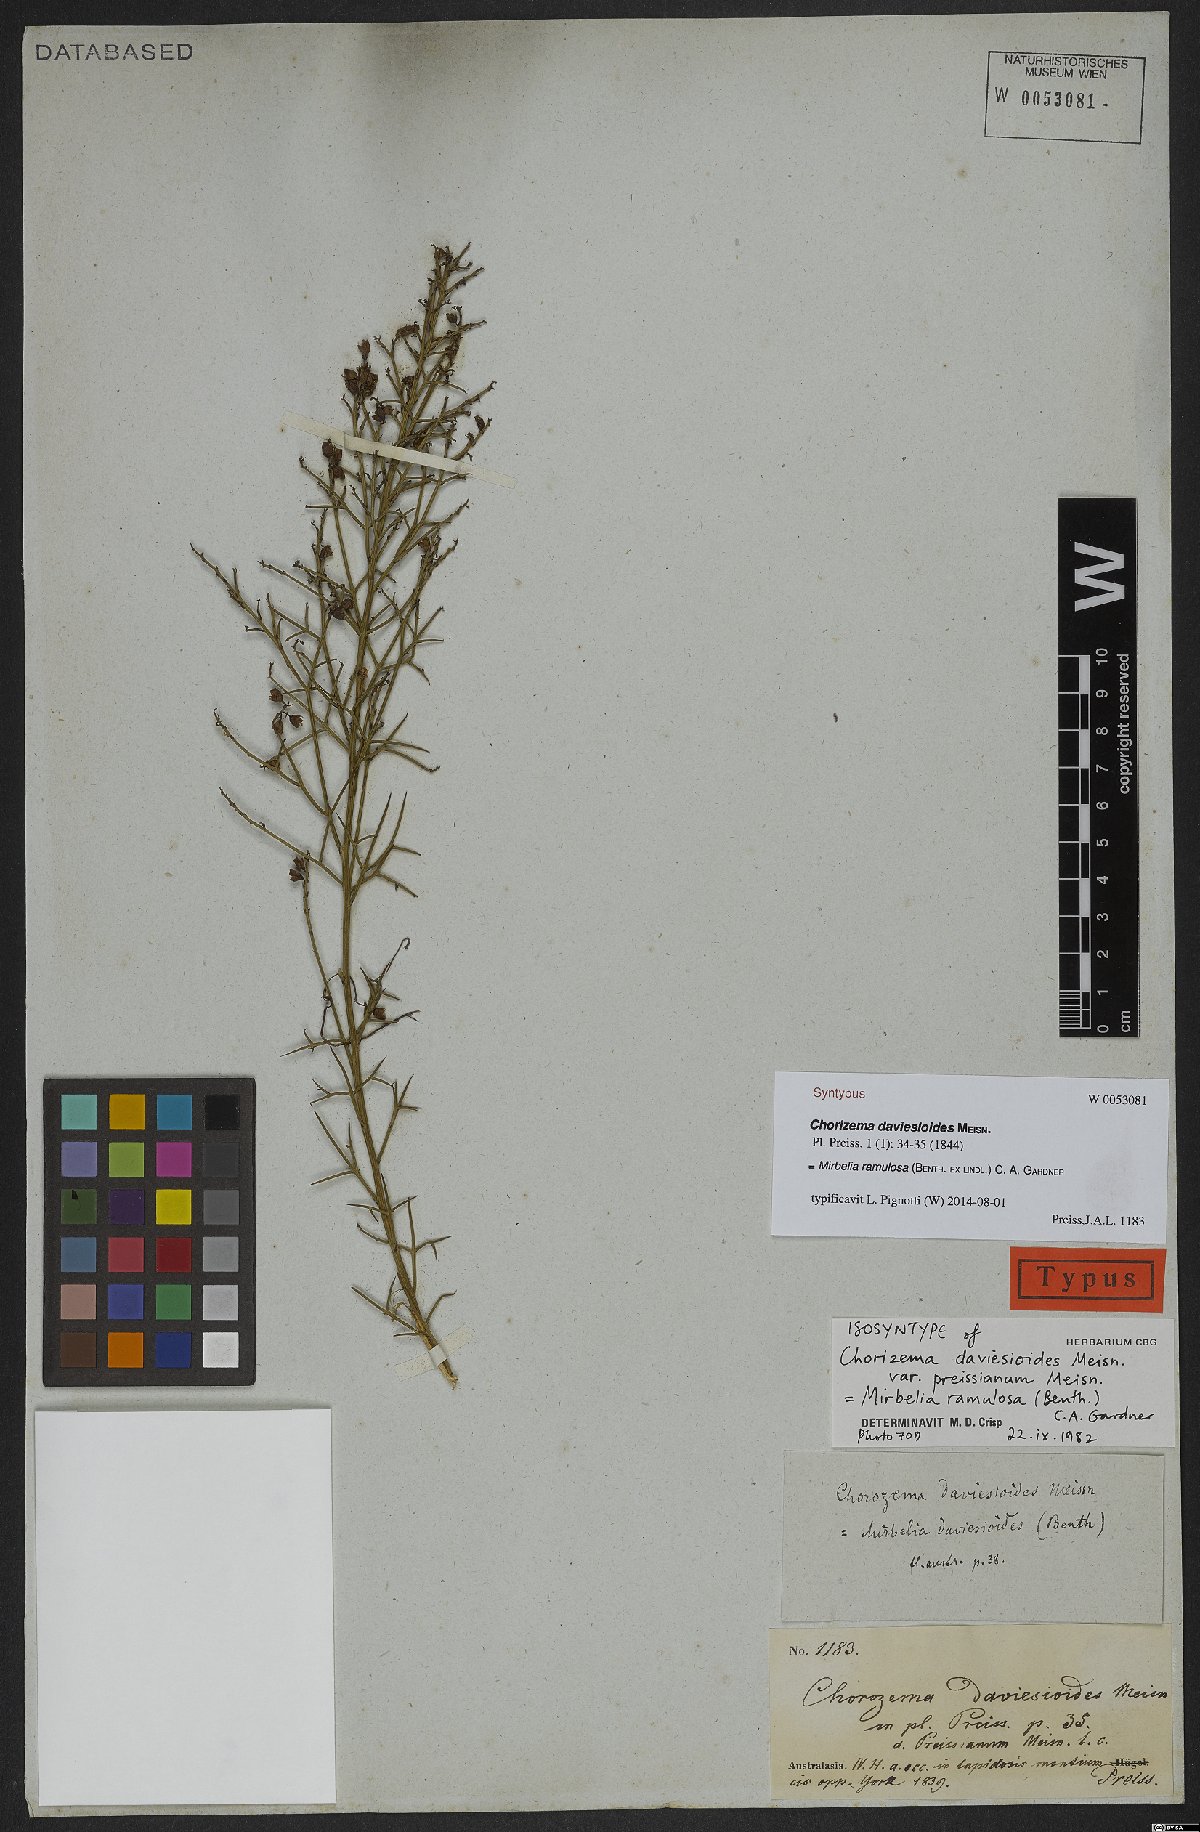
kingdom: Plantae
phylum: Tracheophyta
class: Magnoliopsida
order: Fabales
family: Fabaceae
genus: Mirbelia
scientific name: Mirbelia ramulosa
